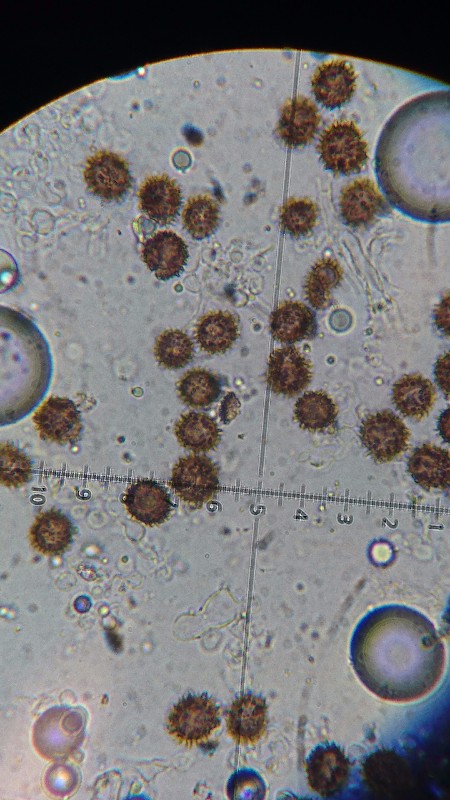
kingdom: Fungi
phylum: Basidiomycota
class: Agaricomycetes
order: Boletales
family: Sclerodermataceae
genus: Scleroderma
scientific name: Scleroderma verrucosum
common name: stilket bruskbold
